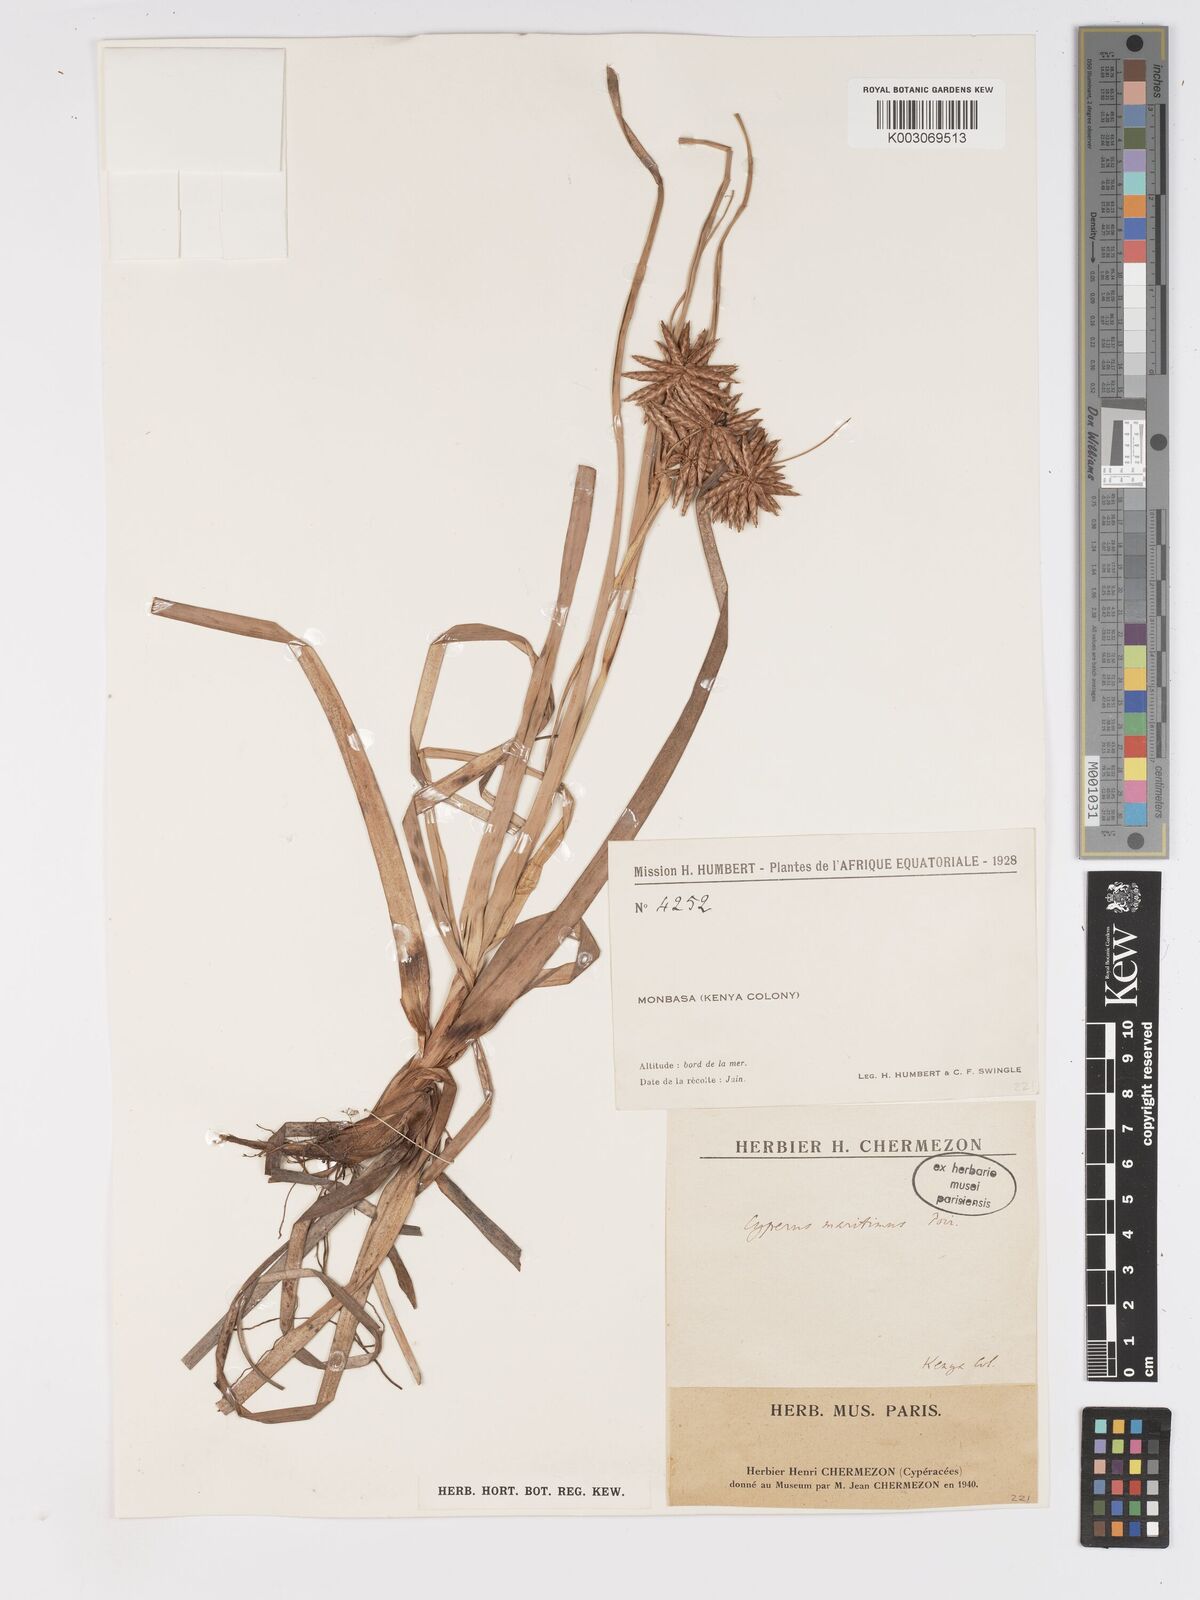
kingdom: Plantae
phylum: Tracheophyta
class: Liliopsida
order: Poales
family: Cyperaceae
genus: Cyperus
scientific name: Cyperus crassipes
